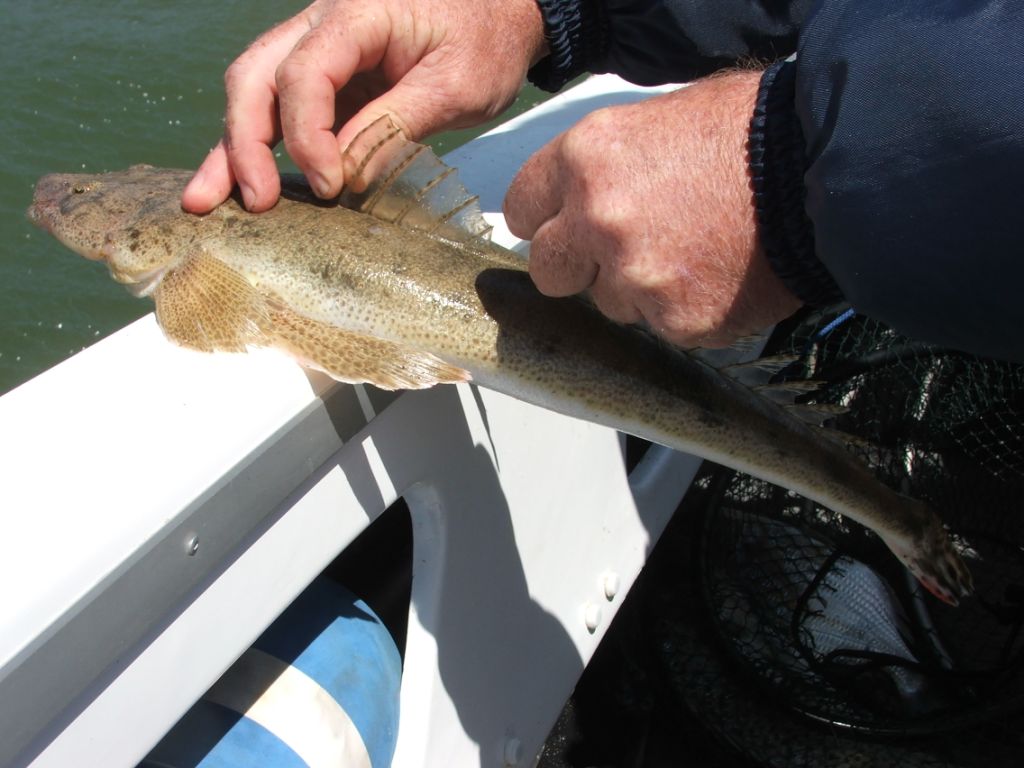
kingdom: Animalia
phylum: Chordata
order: Scorpaeniformes
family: Platycephalidae
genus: Platycephalus
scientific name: Platycephalus indicus
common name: Bartail flathead
